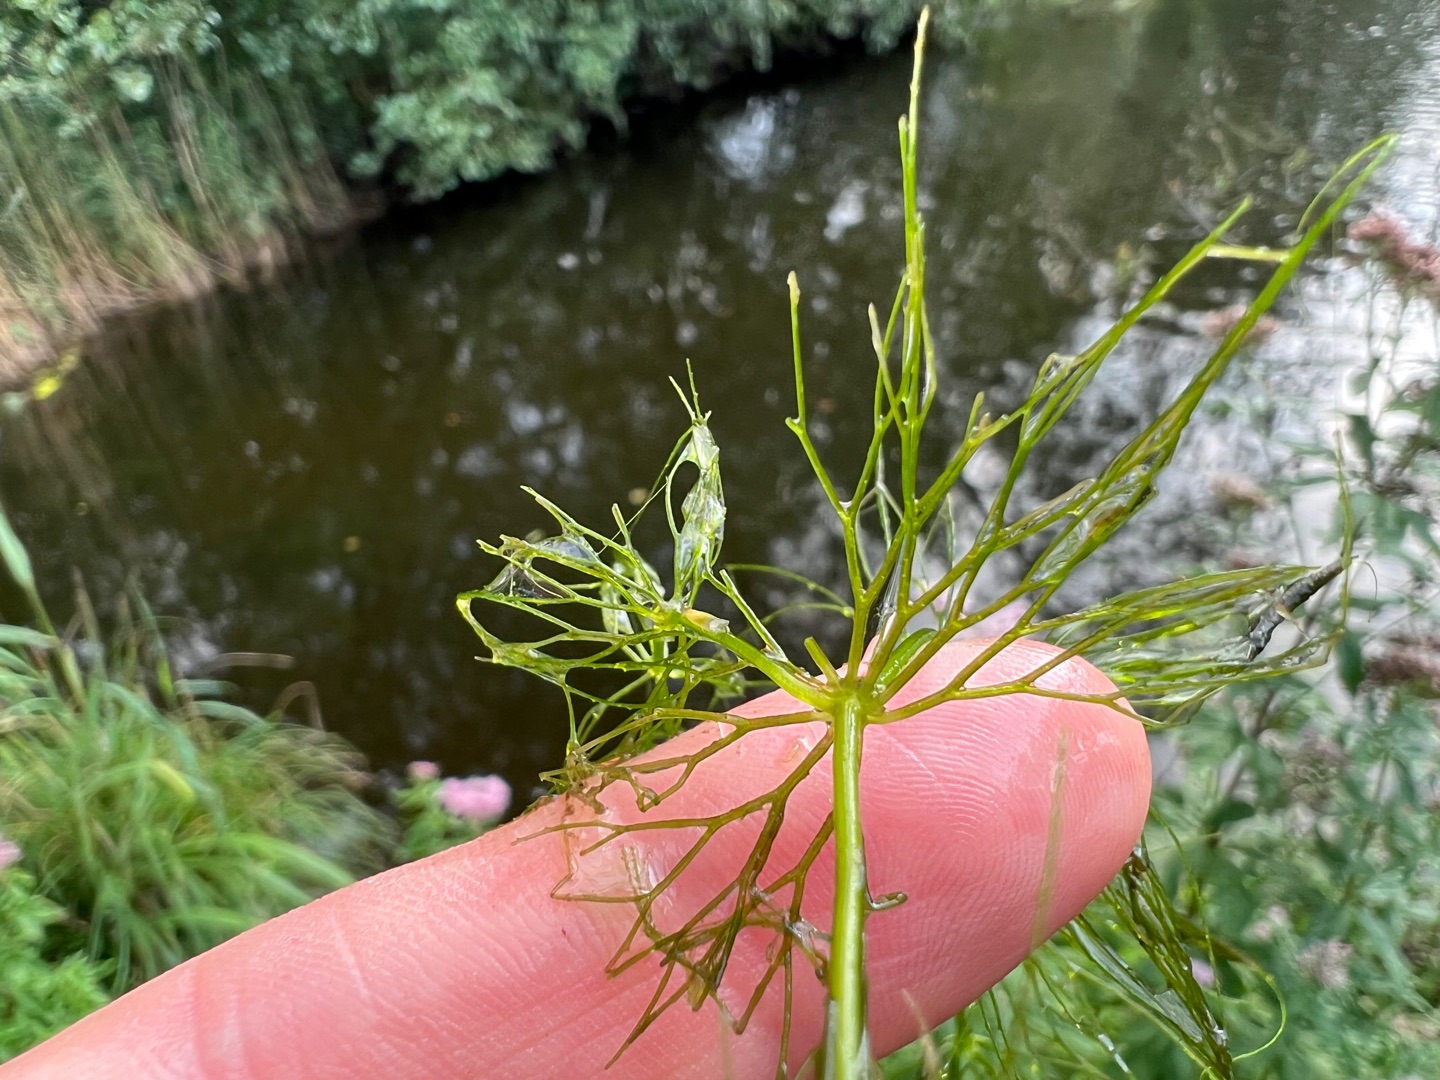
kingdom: Plantae
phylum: Tracheophyta
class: Magnoliopsida
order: Ceratophyllales
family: Ceratophyllaceae
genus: Ceratophyllum
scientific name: Ceratophyllum submersum
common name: Tornløs hornblad
